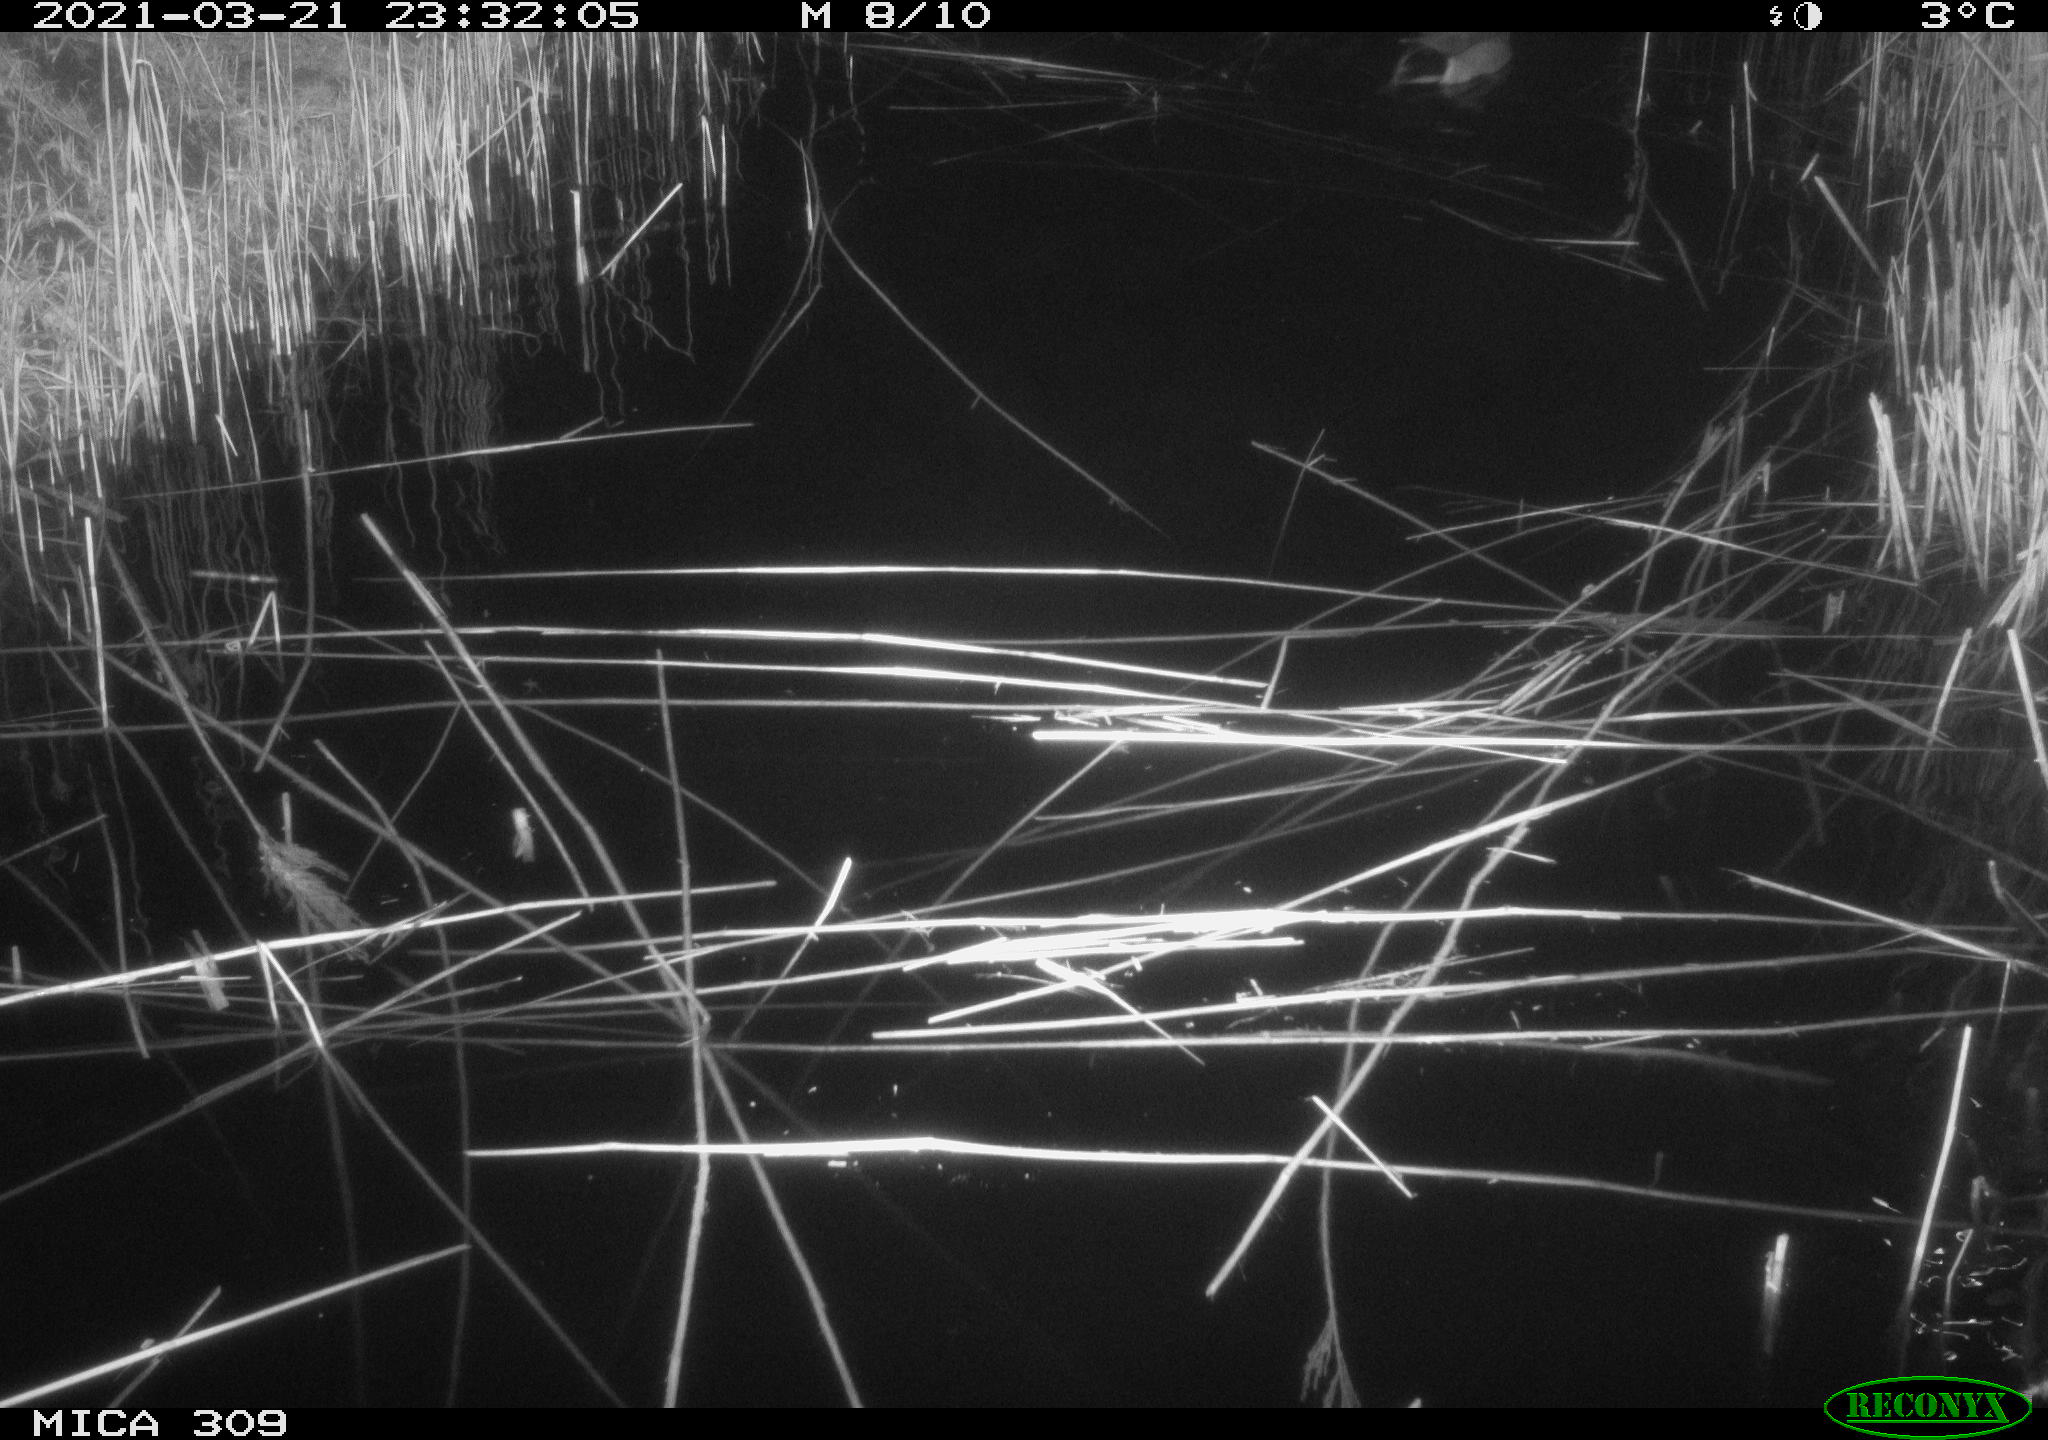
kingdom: Animalia
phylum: Chordata
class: Aves
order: Anseriformes
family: Anatidae
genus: Anas
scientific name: Anas platyrhynchos
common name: Mallard
